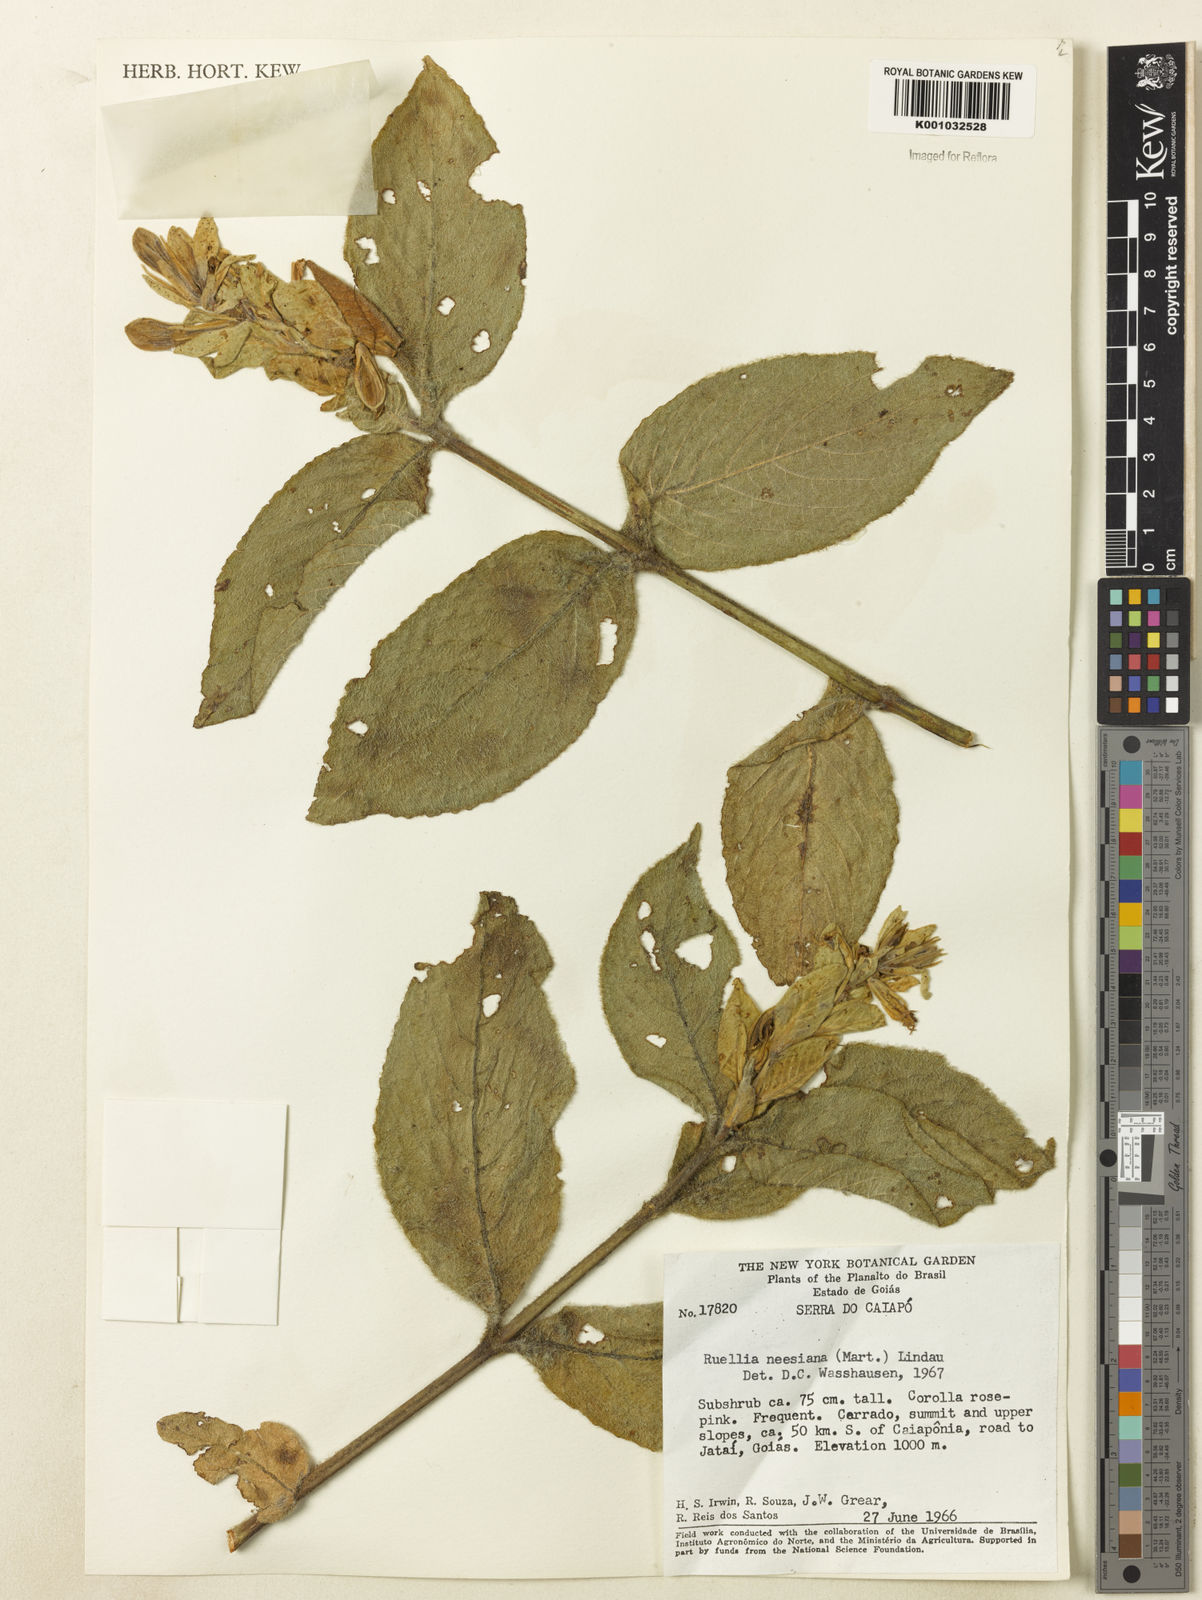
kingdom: Plantae
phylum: Tracheophyta
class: Magnoliopsida
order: Lamiales
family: Acanthaceae
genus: Ruellia
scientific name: Ruellia
